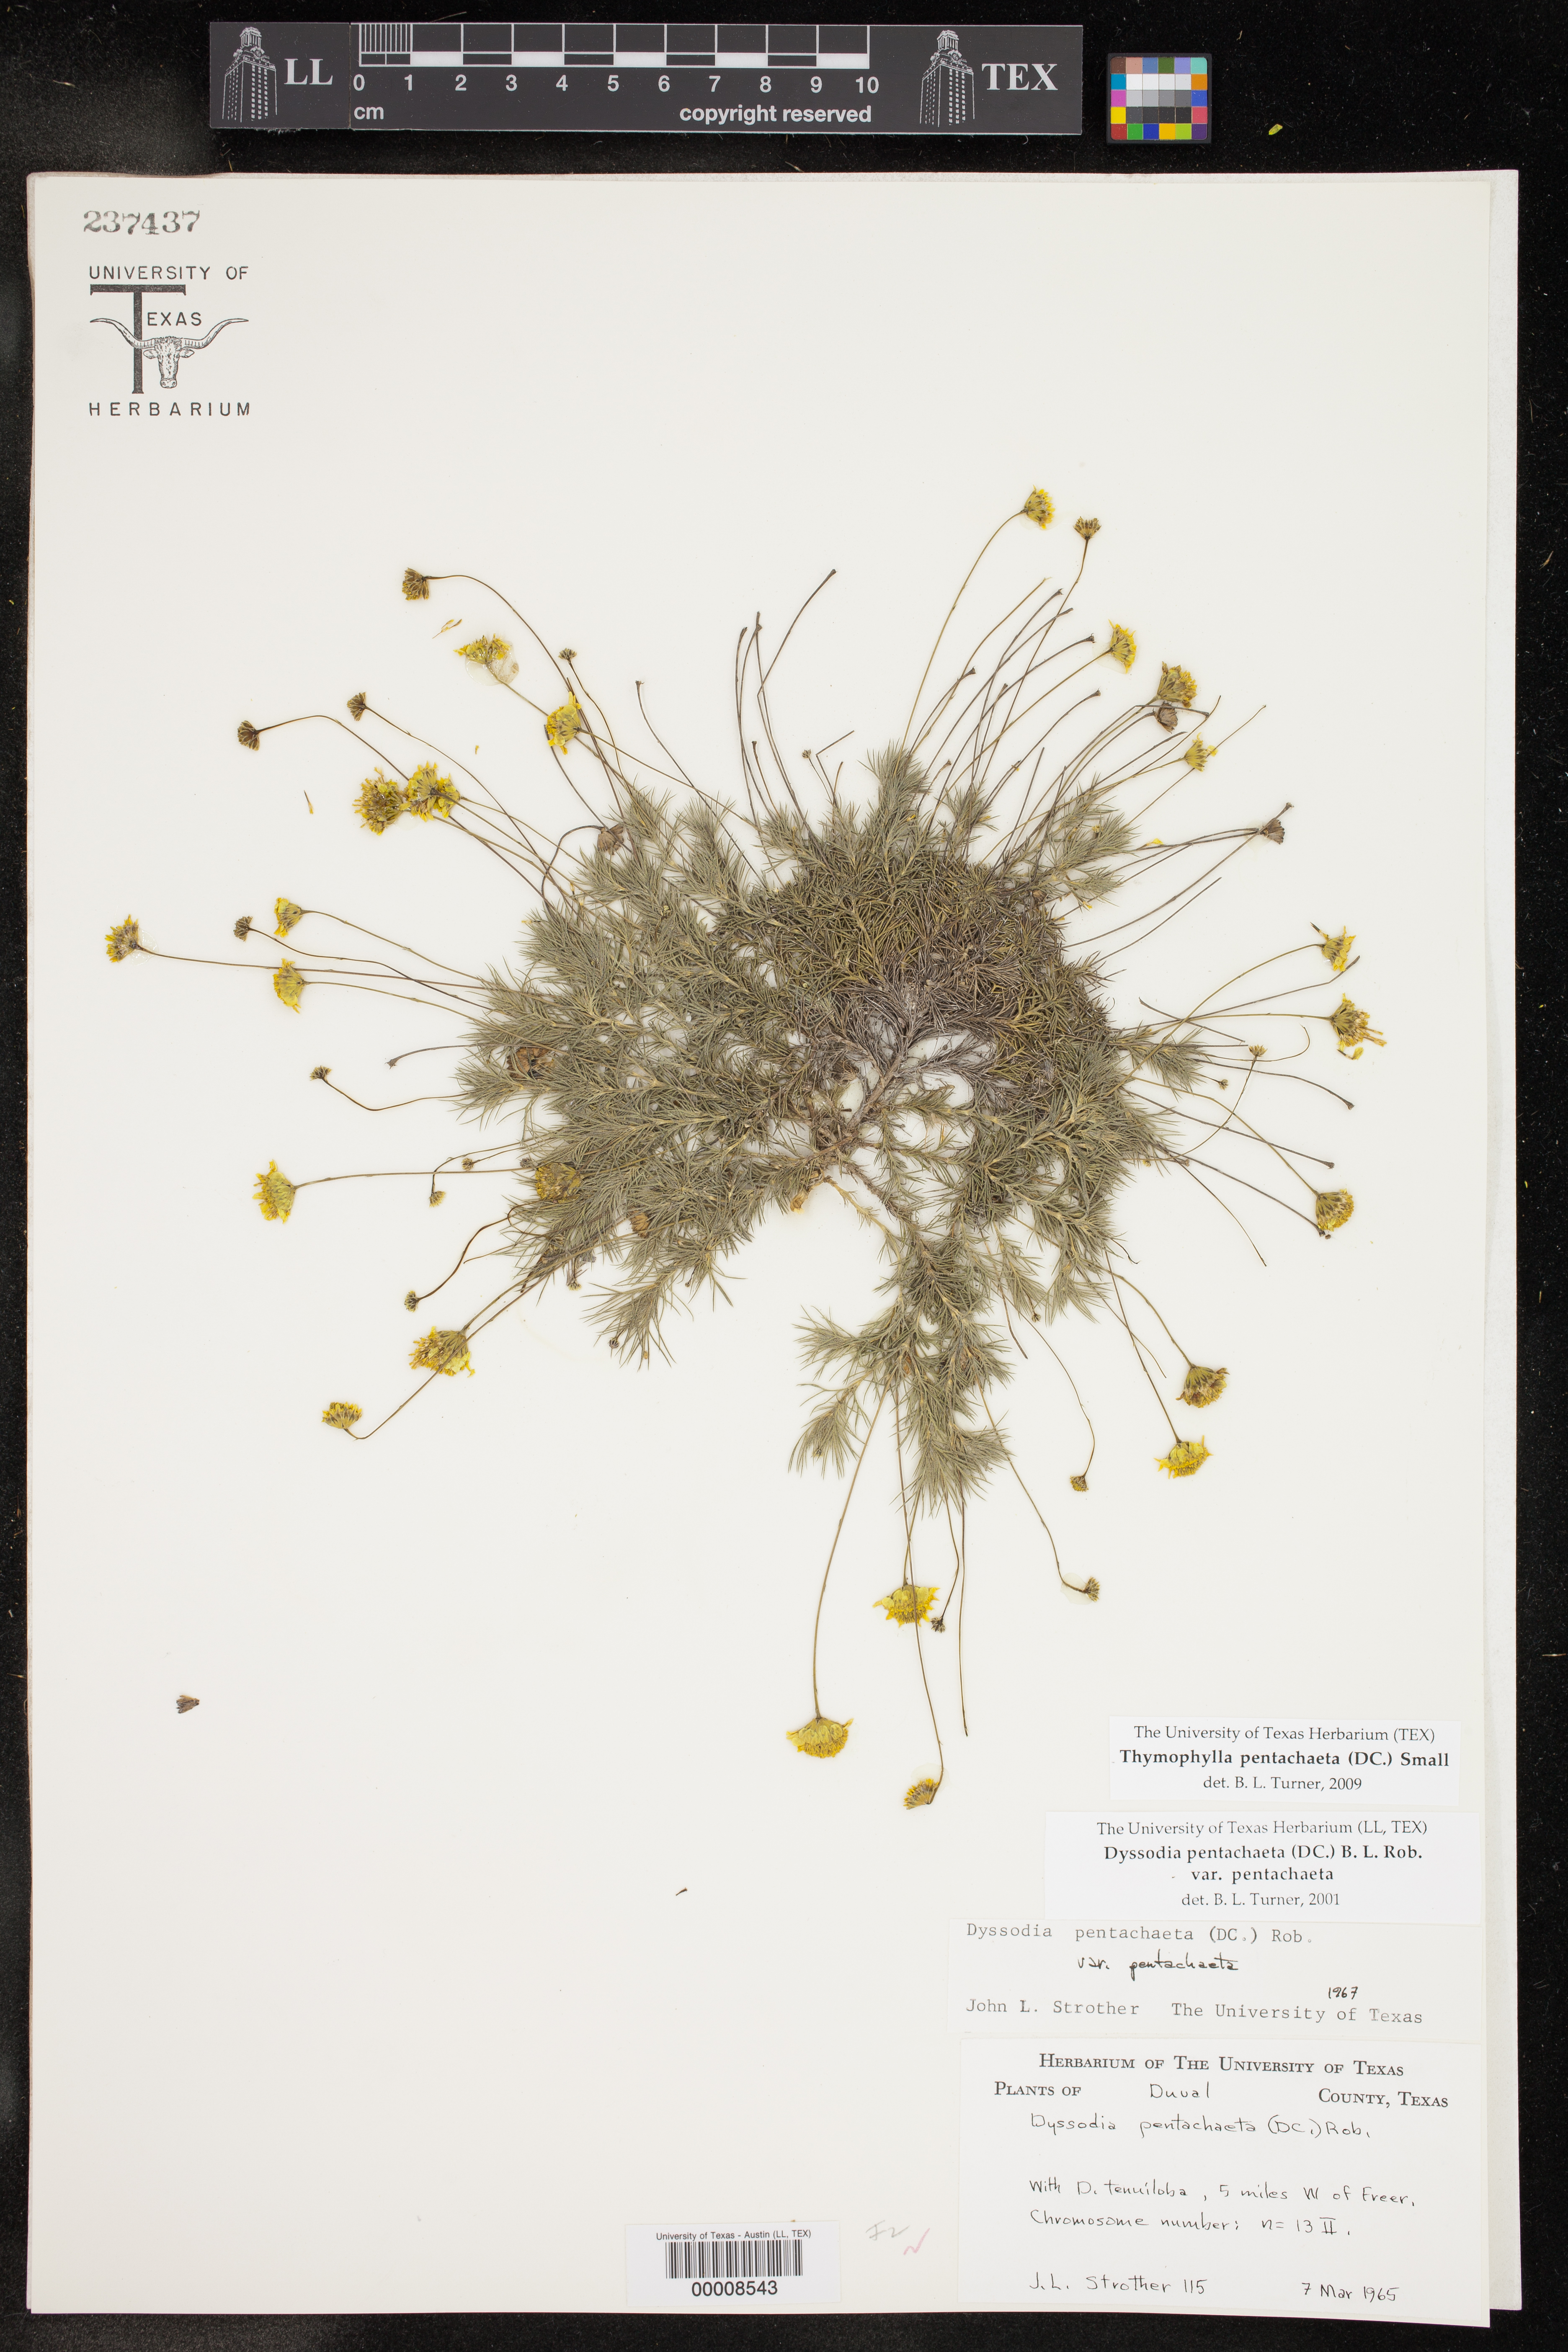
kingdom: Plantae
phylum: Tracheophyta
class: Magnoliopsida
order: Asterales
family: Asteraceae
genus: Thymophylla
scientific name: Thymophylla pentachaeta
